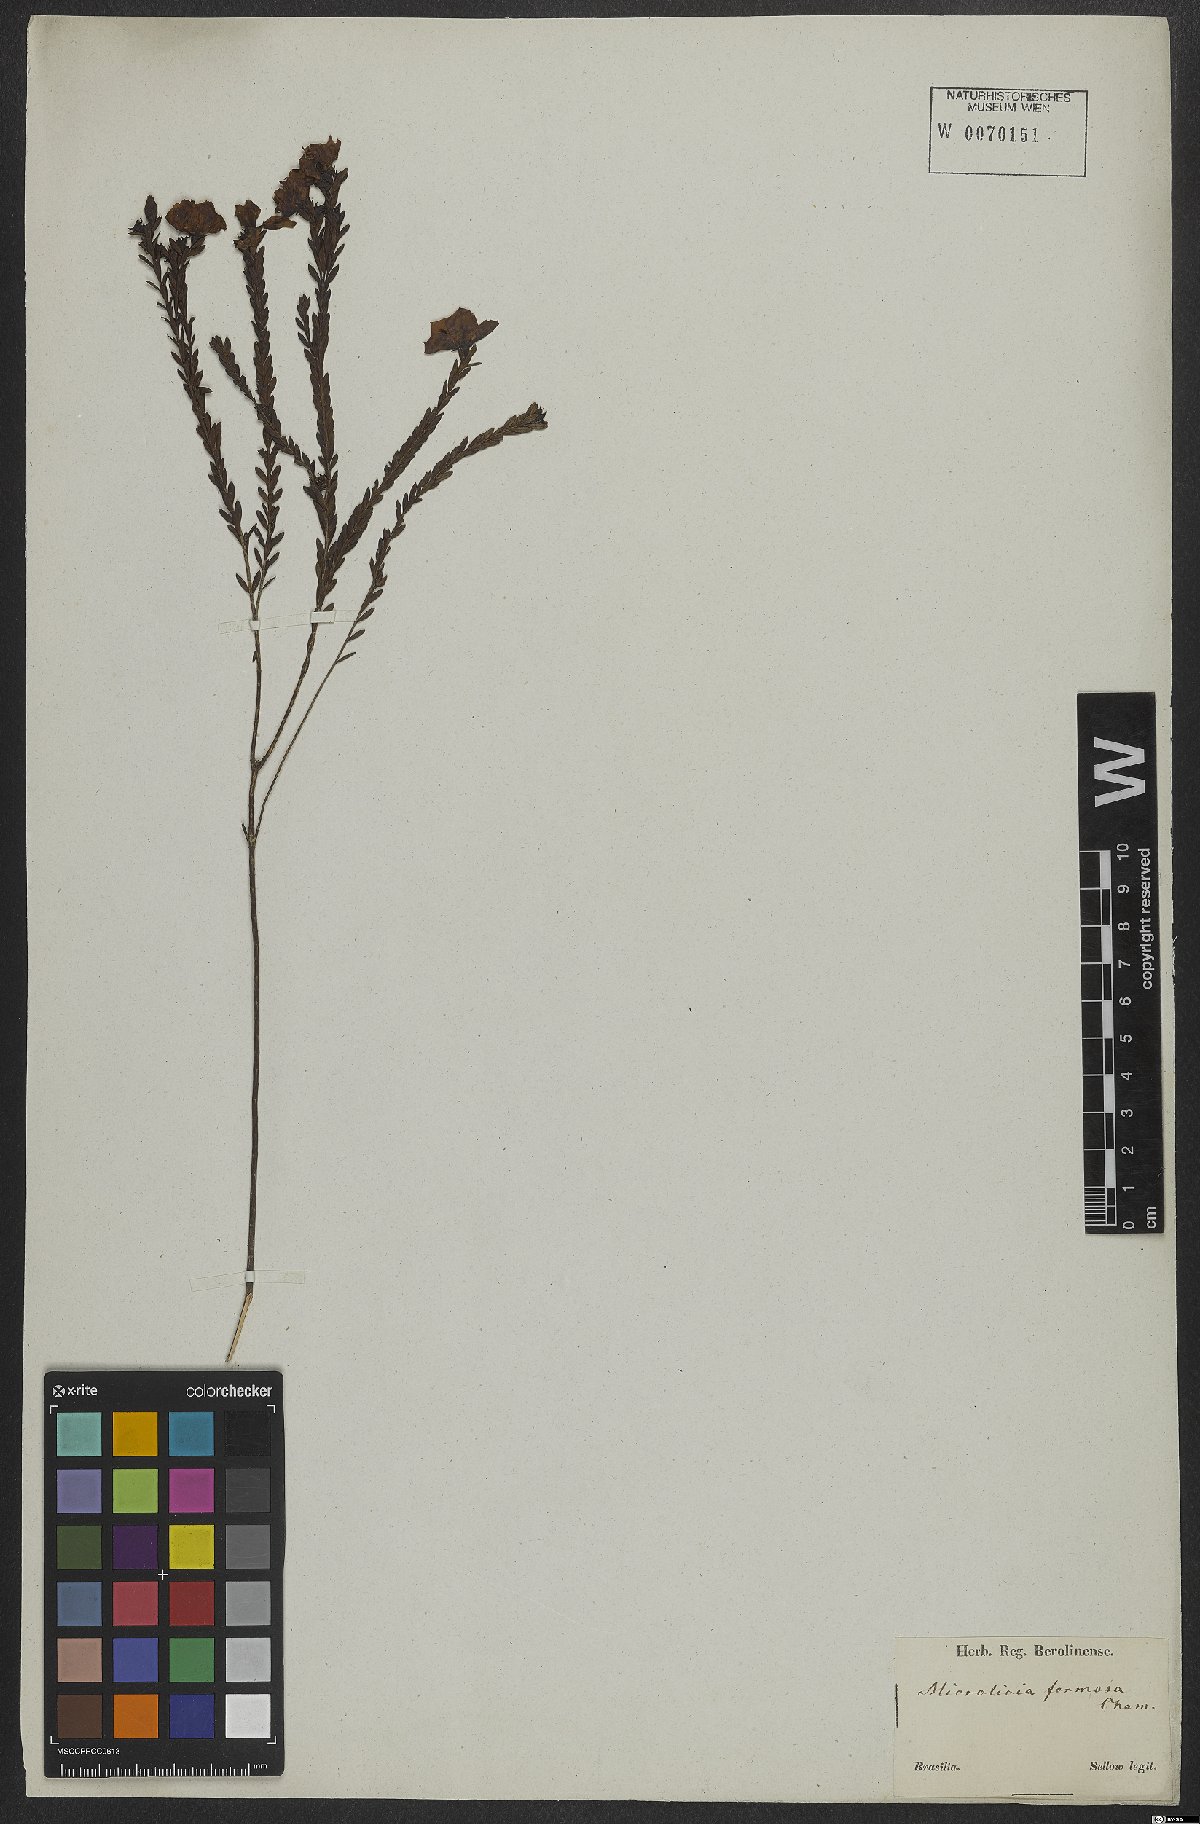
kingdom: Plantae
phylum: Tracheophyta
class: Magnoliopsida
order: Myrtales
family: Melastomataceae
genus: Microlicia
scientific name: Microlicia formosa
